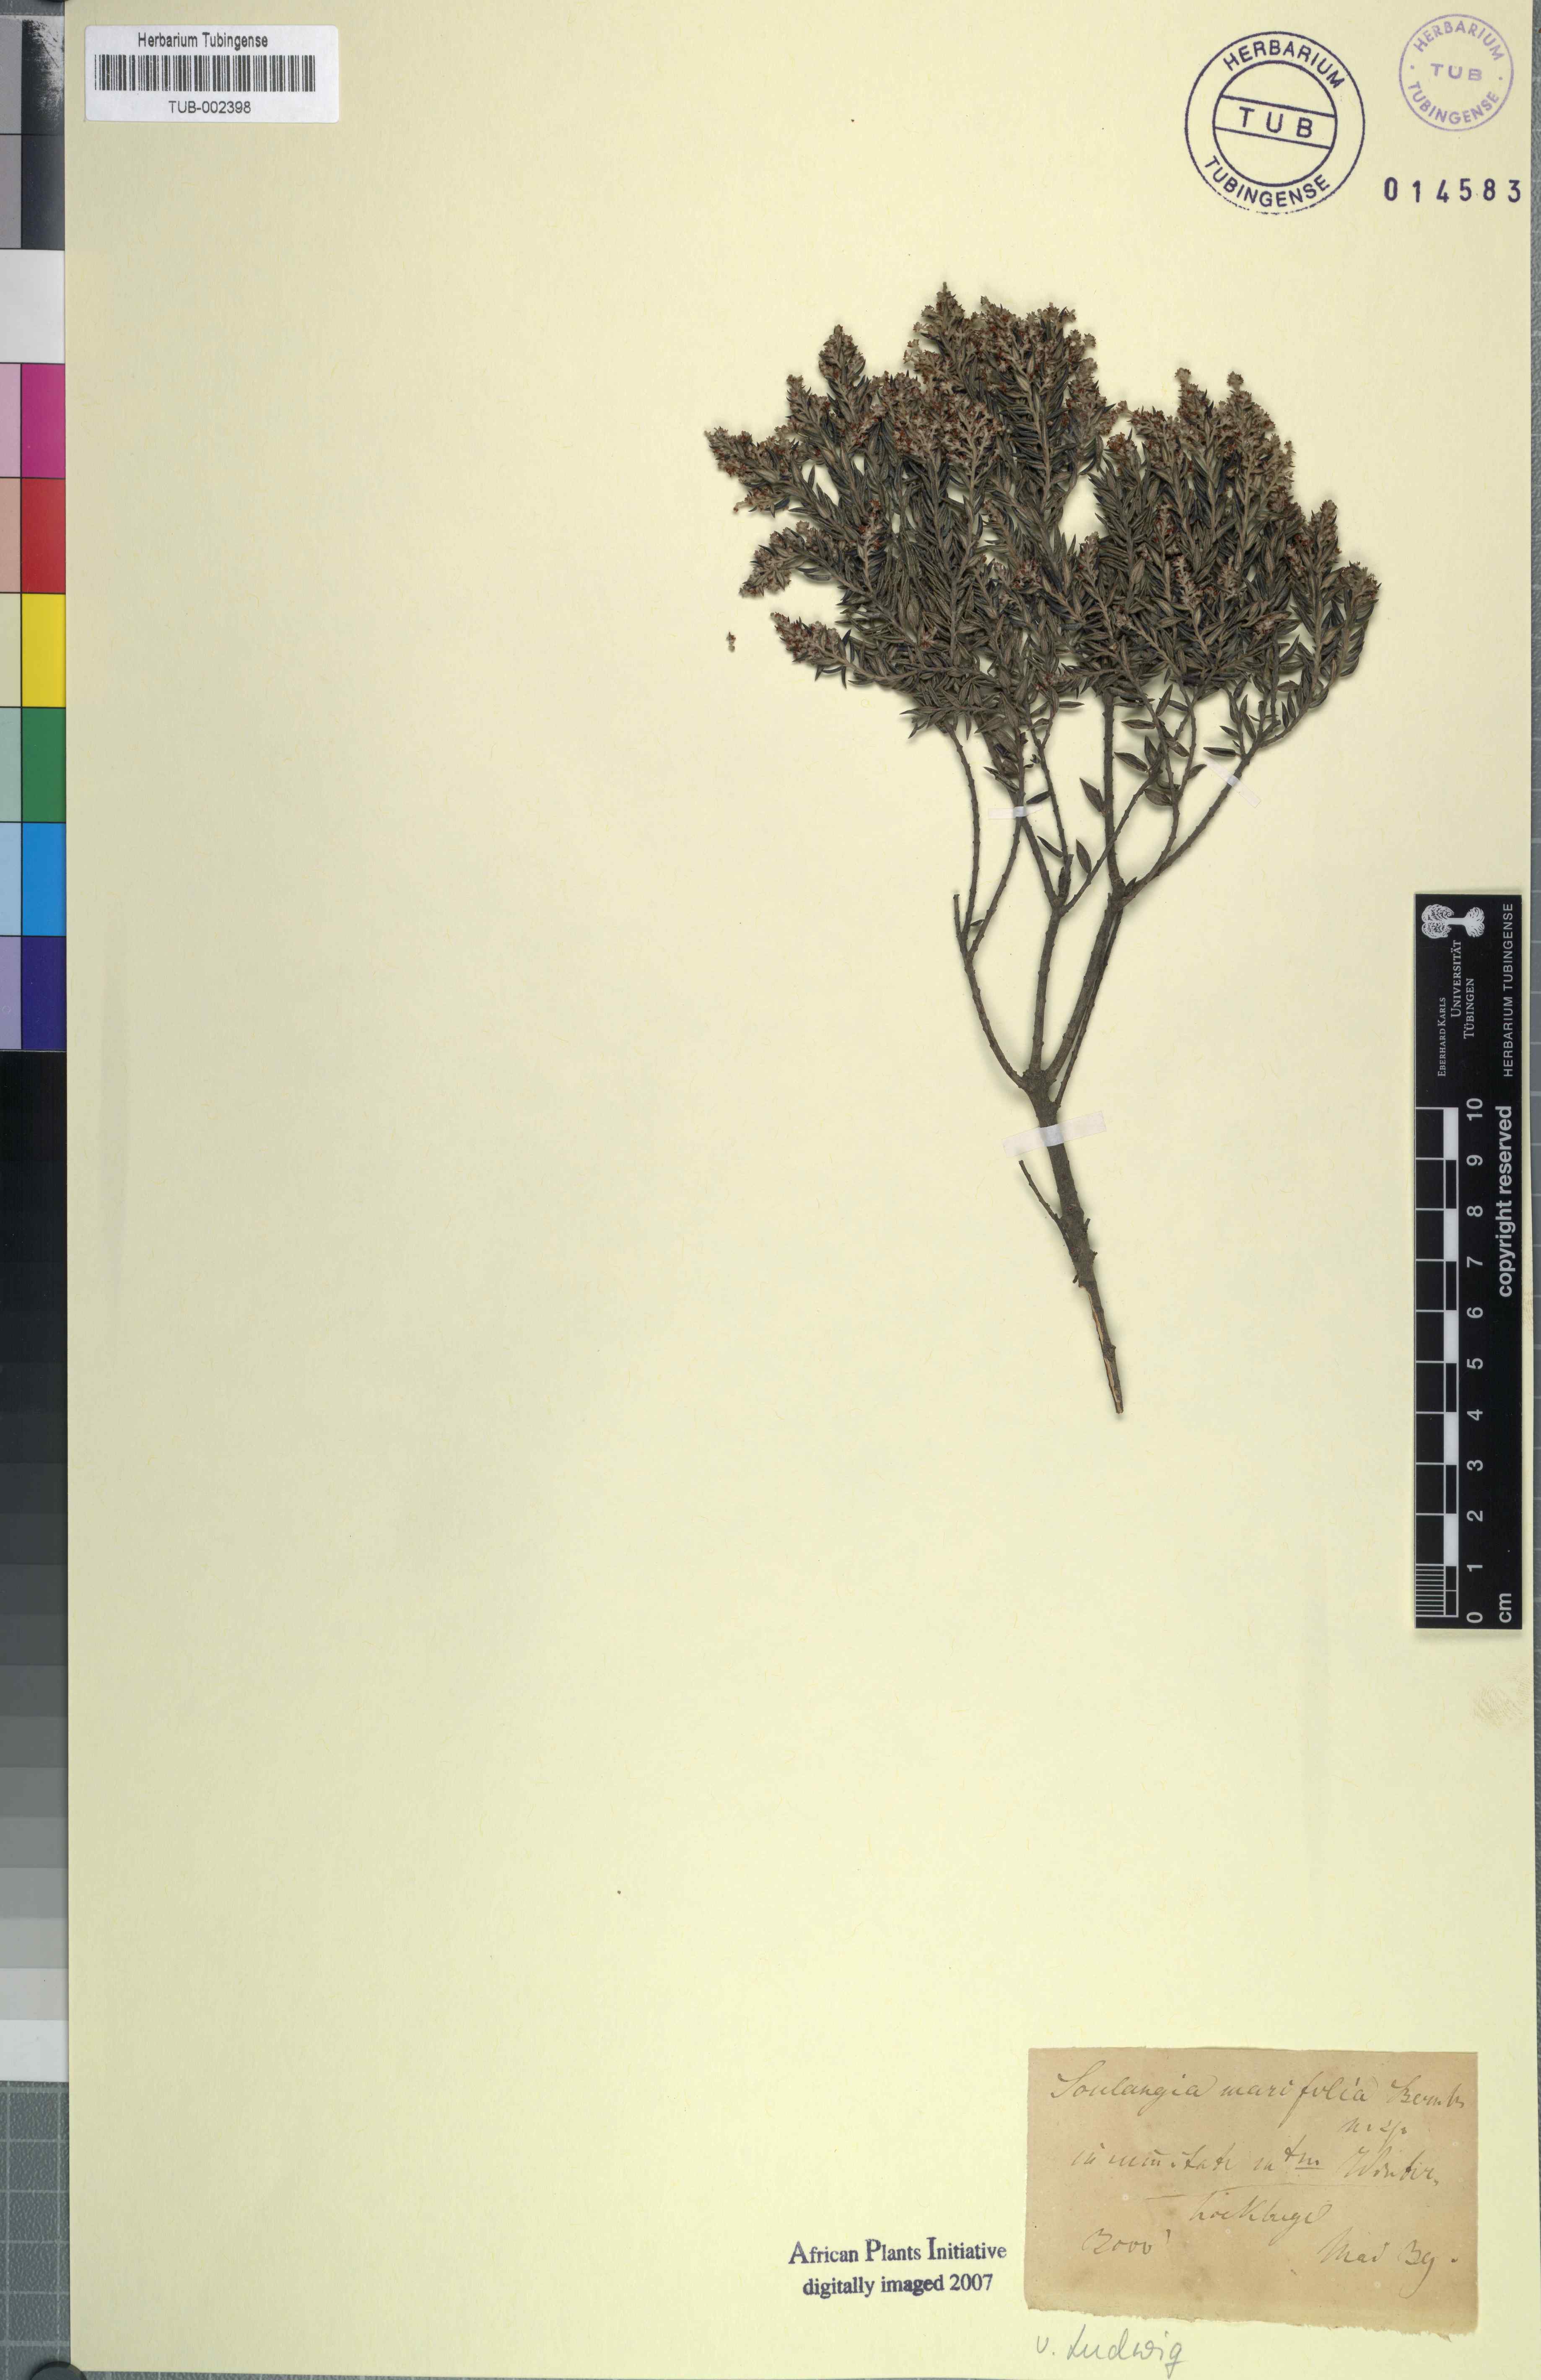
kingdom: Plantae
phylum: Tracheophyta
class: Magnoliopsida
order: Rosales
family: Rhamnaceae
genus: Phylica
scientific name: Phylica paniculata
